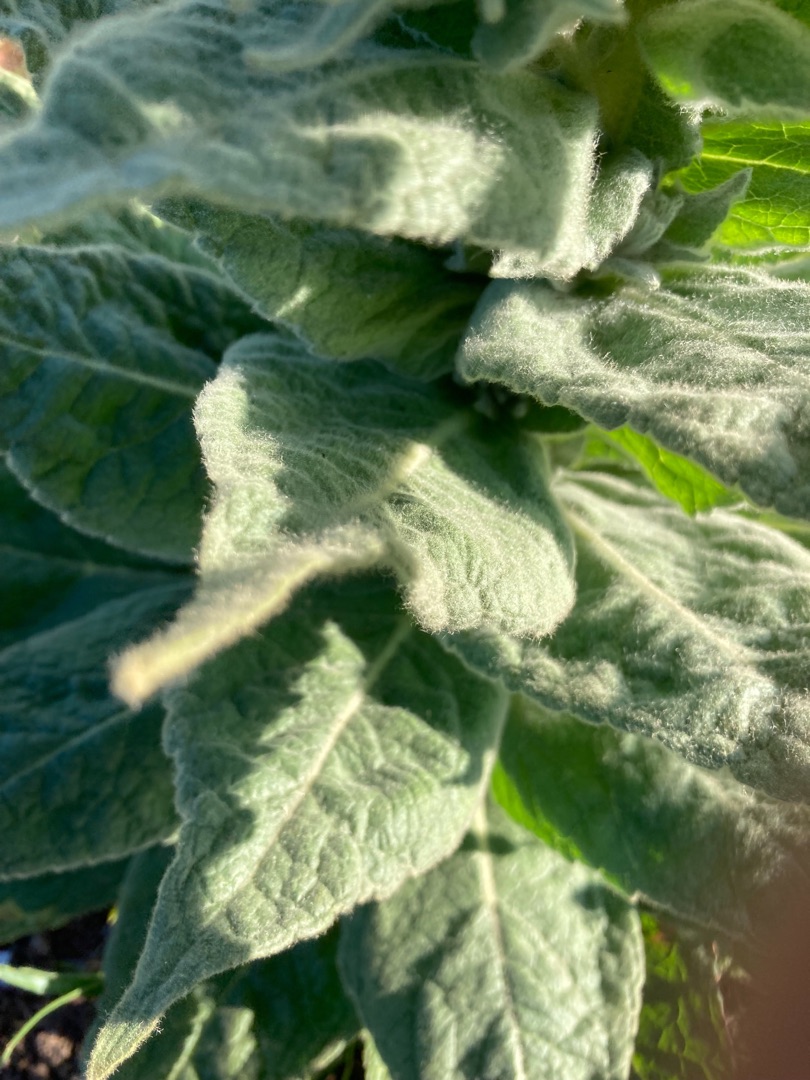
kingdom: Plantae
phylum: Tracheophyta
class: Magnoliopsida
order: Lamiales
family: Scrophulariaceae
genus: Verbascum
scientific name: Verbascum densiflorum
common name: Uldbladet kongelys
